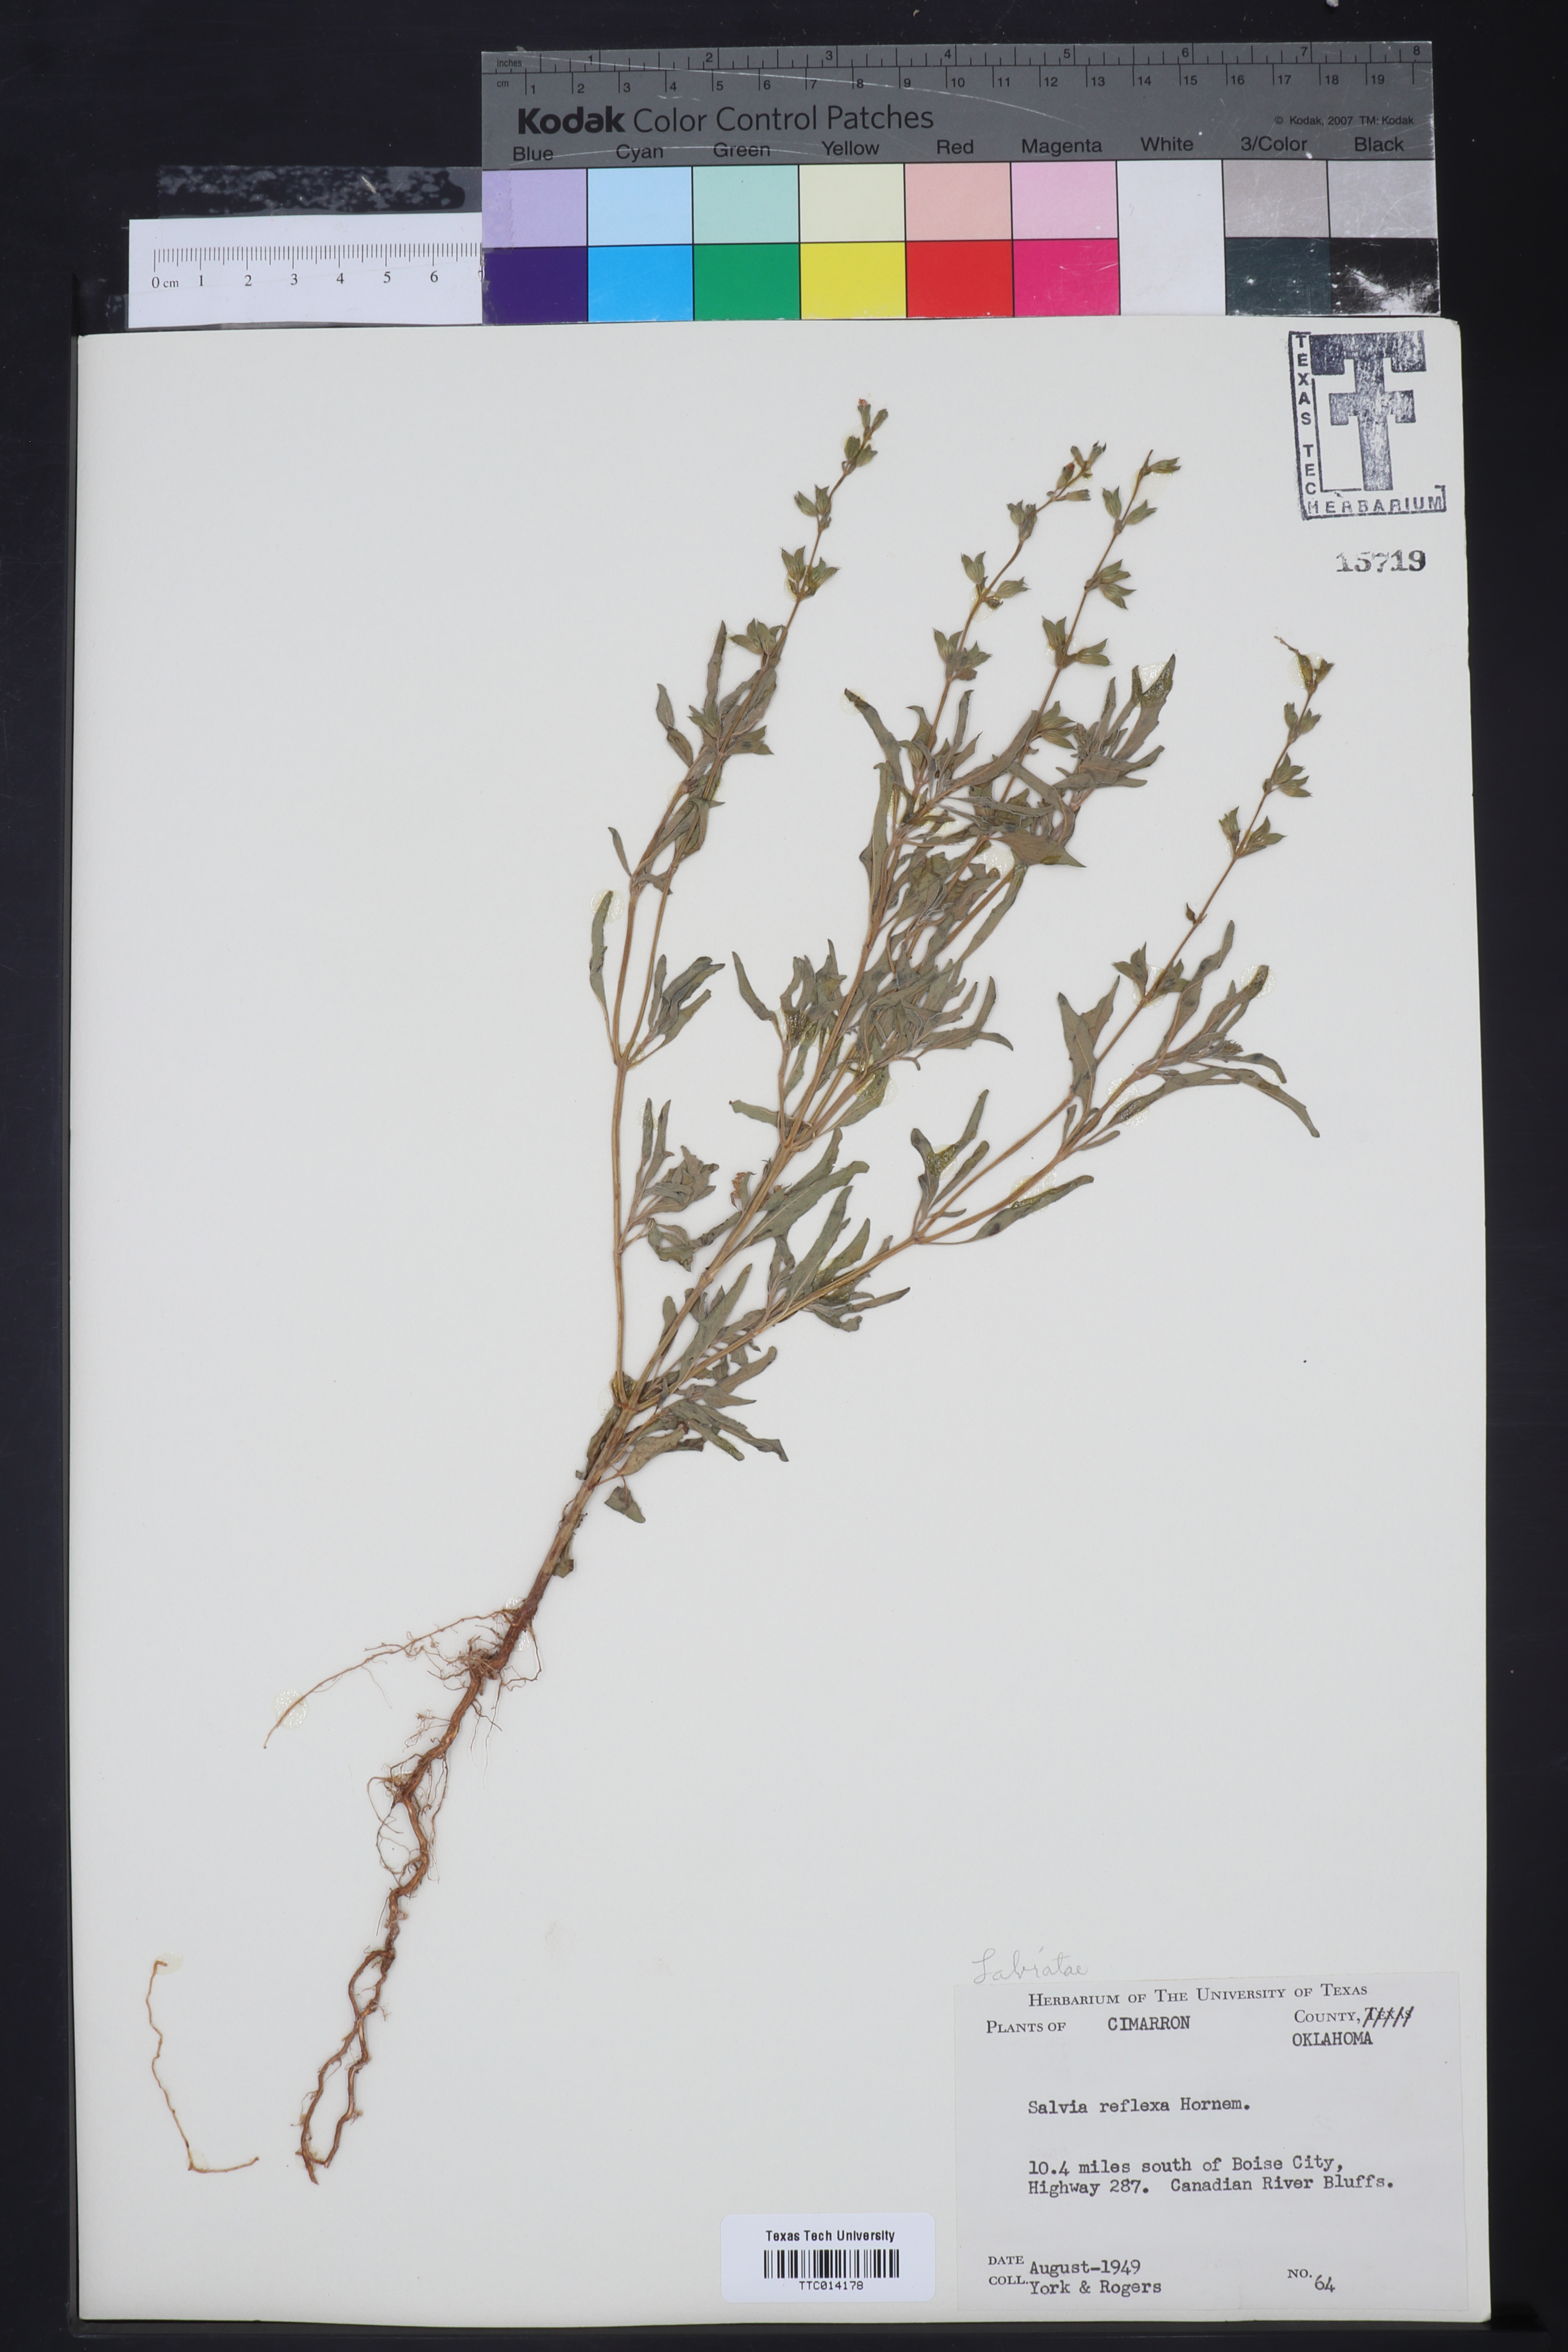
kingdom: Plantae
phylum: Tracheophyta
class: Magnoliopsida
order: Lamiales
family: Lamiaceae
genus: Salvia
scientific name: Salvia reflexa
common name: Mintweed
